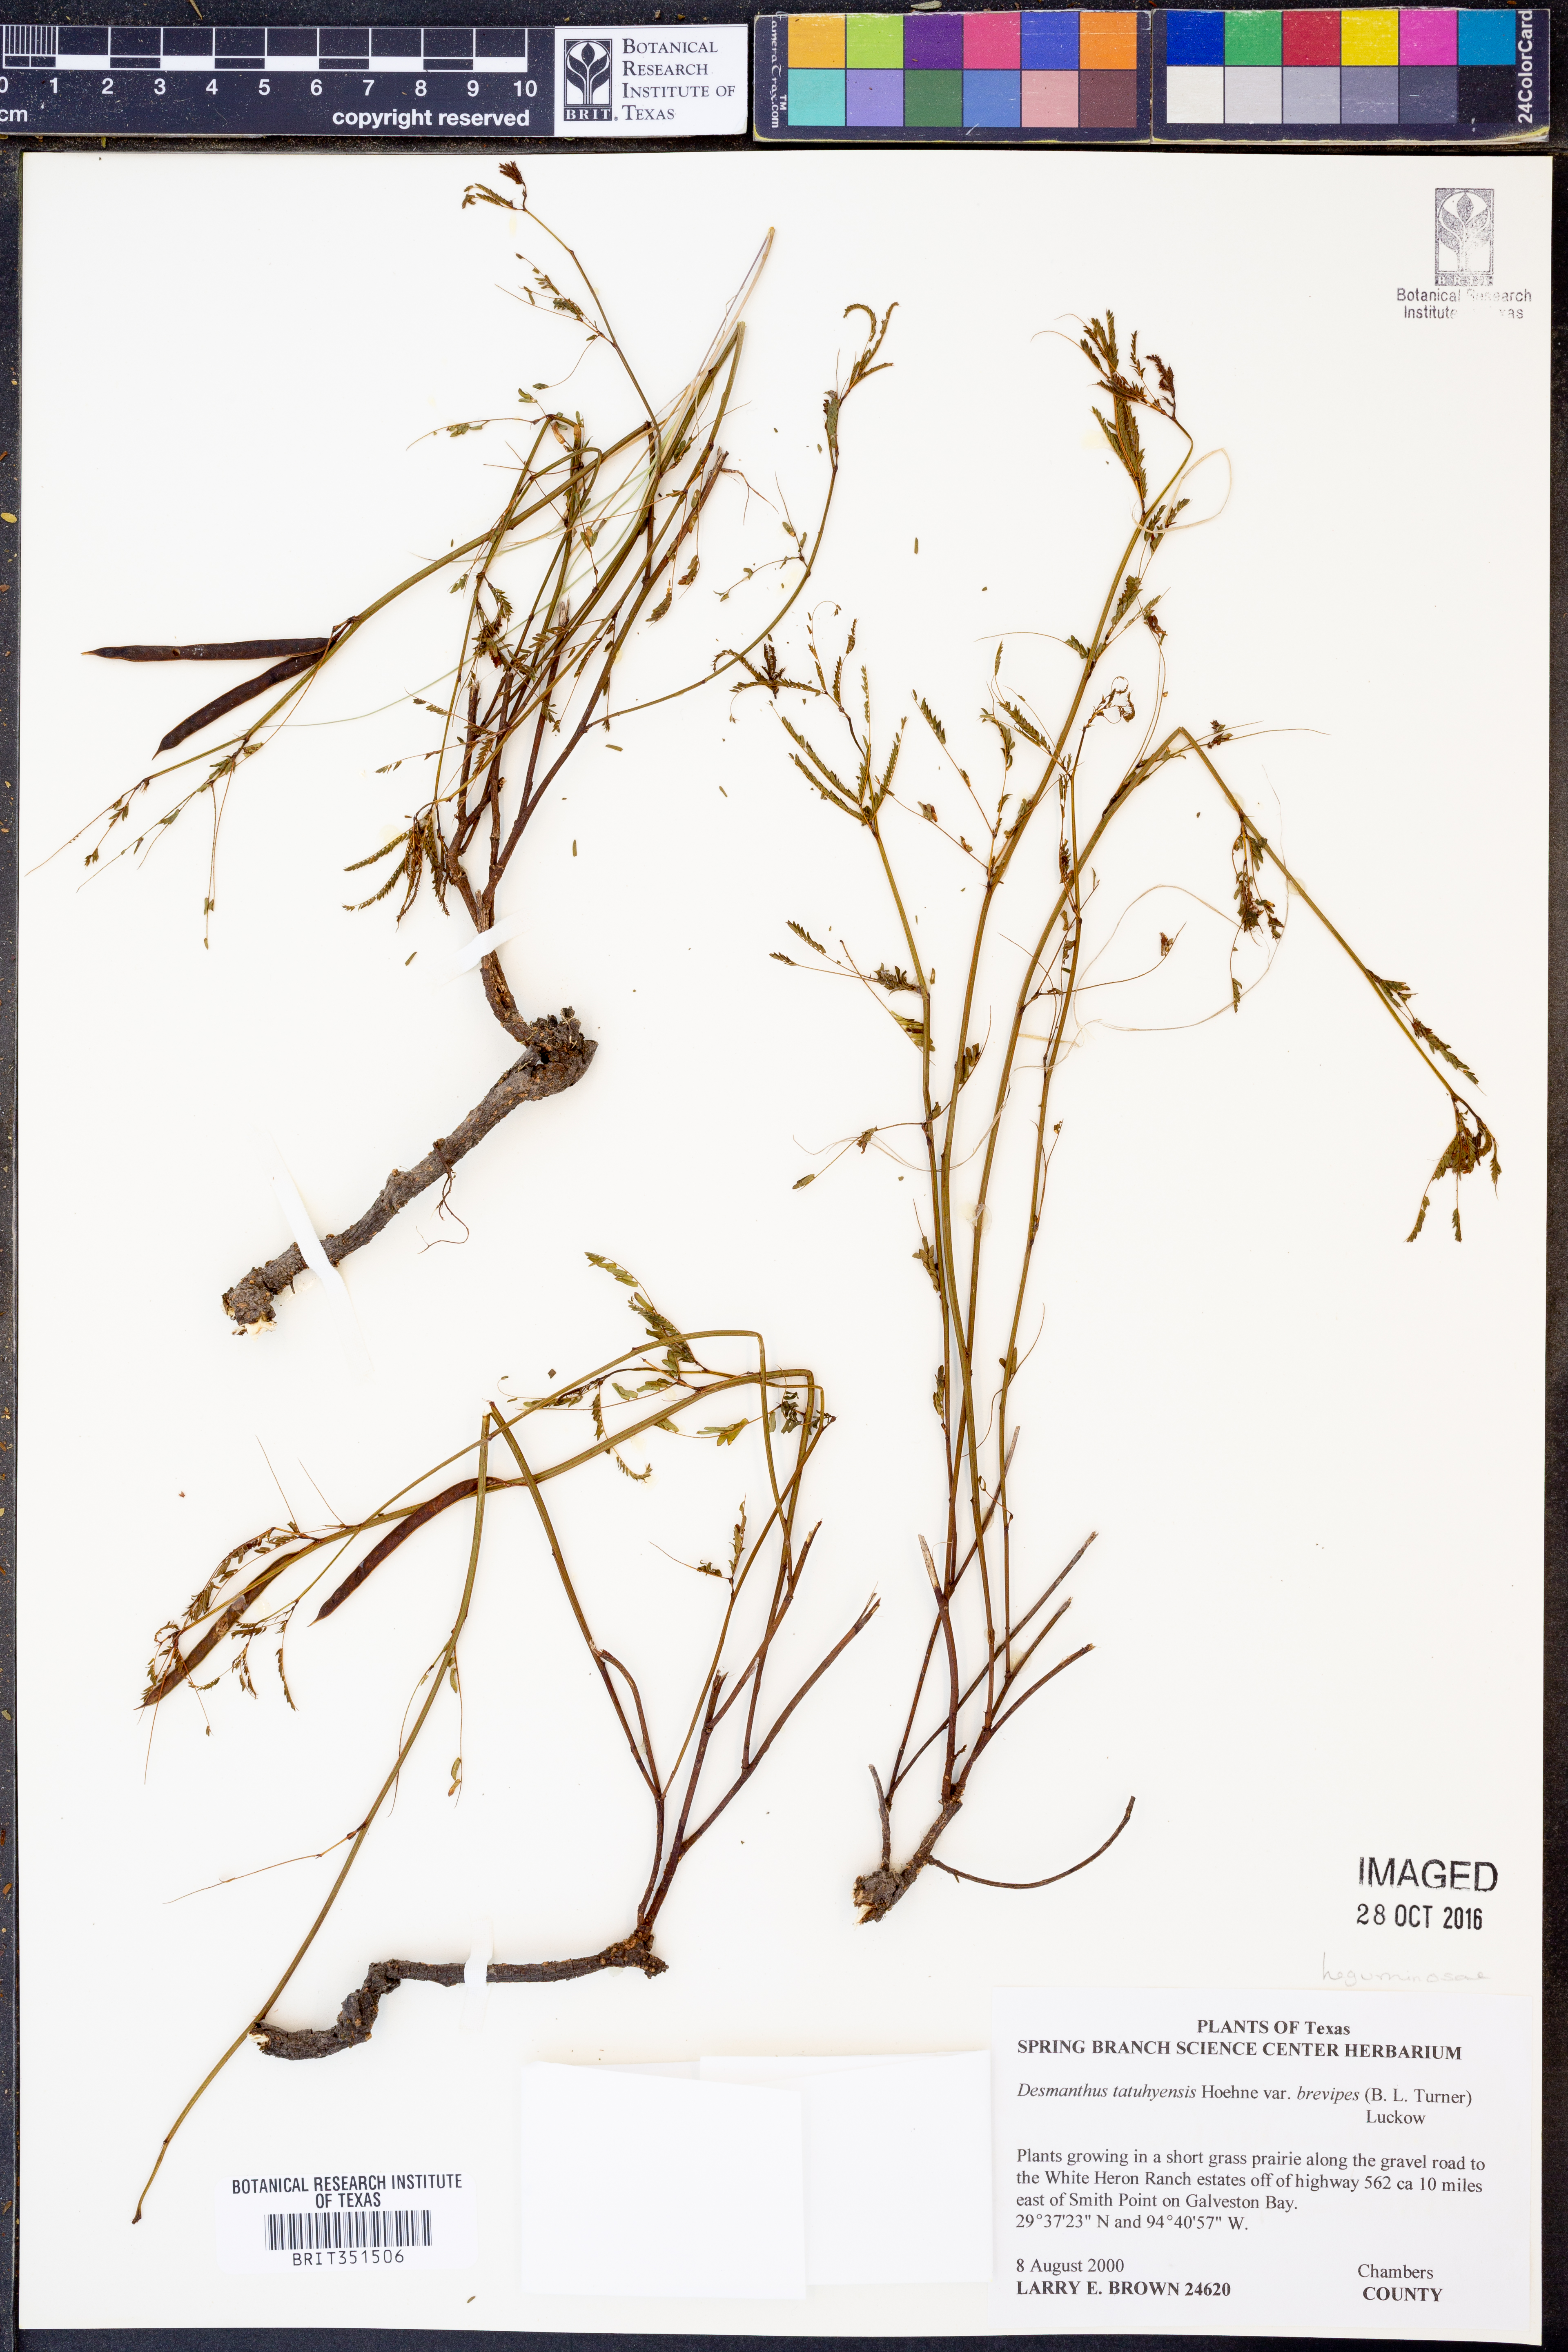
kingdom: Plantae
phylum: Tracheophyta
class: Magnoliopsida
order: Fabales
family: Fabaceae
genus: Desmanthus
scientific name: Desmanthus tatuhyensis
